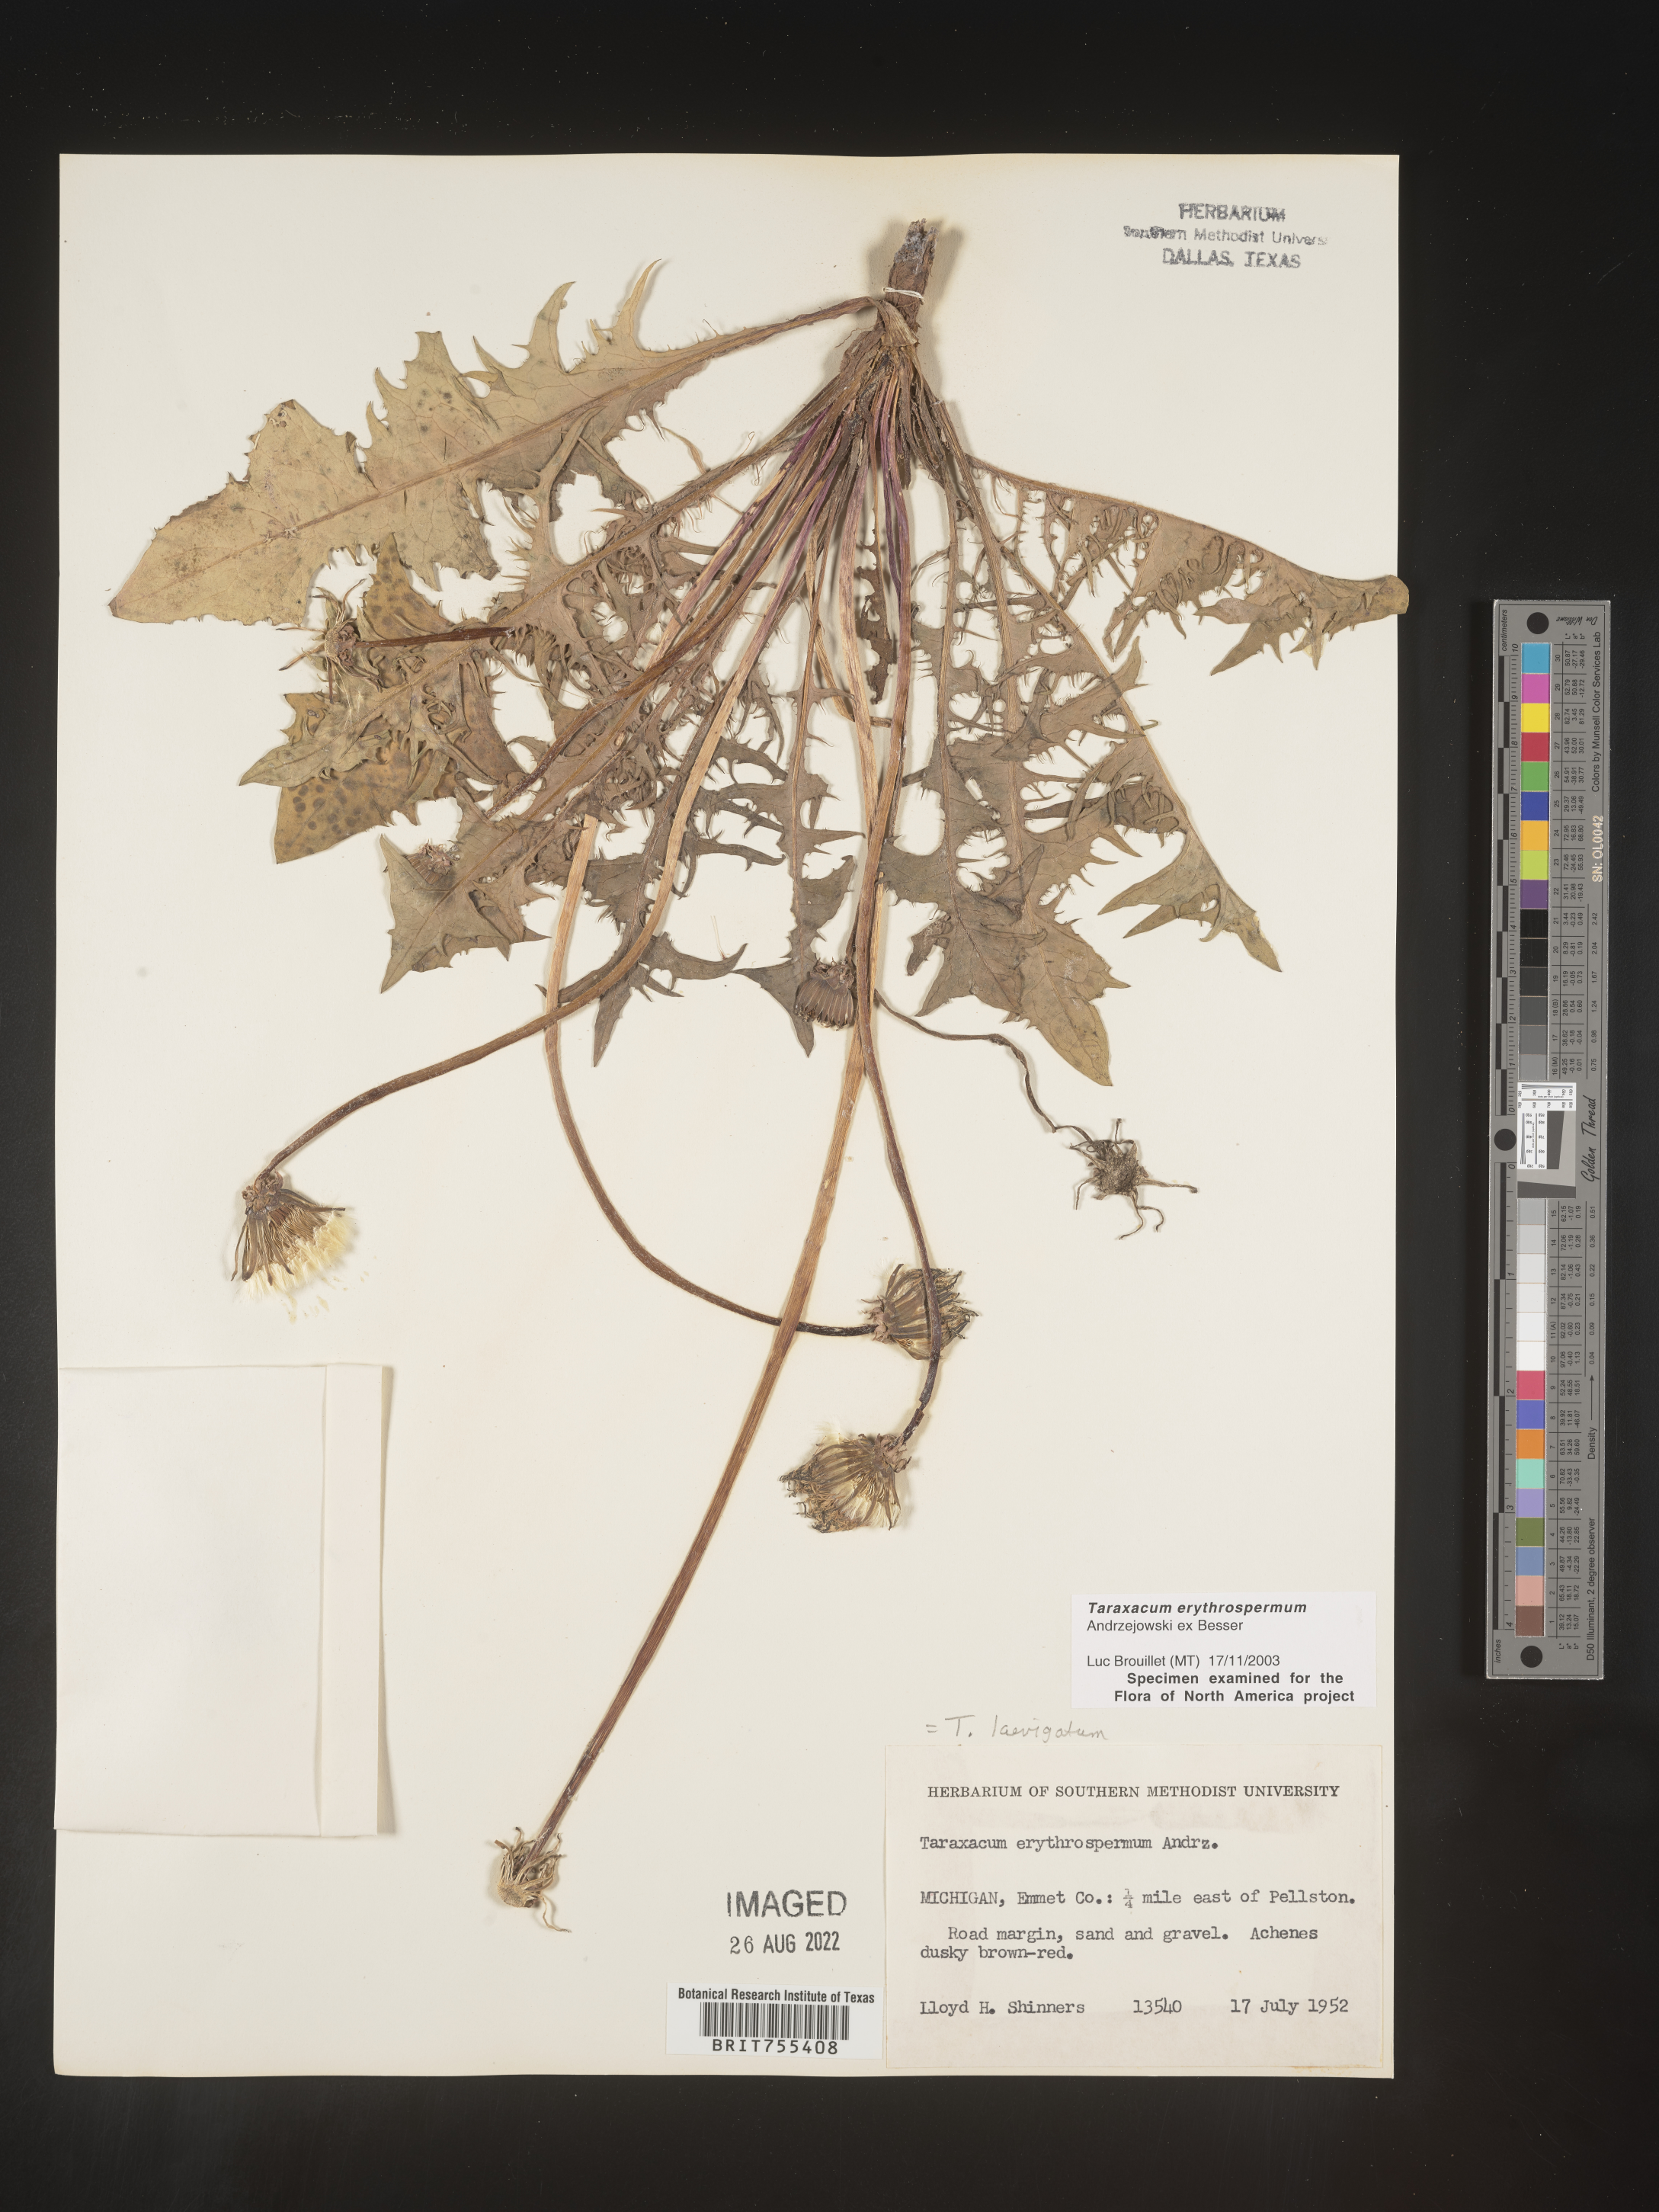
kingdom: Plantae
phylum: Tracheophyta
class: Magnoliopsida
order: Asterales
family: Asteraceae
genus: Taraxacum
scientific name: Taraxacum erythrospermum
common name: Rock dandelion
